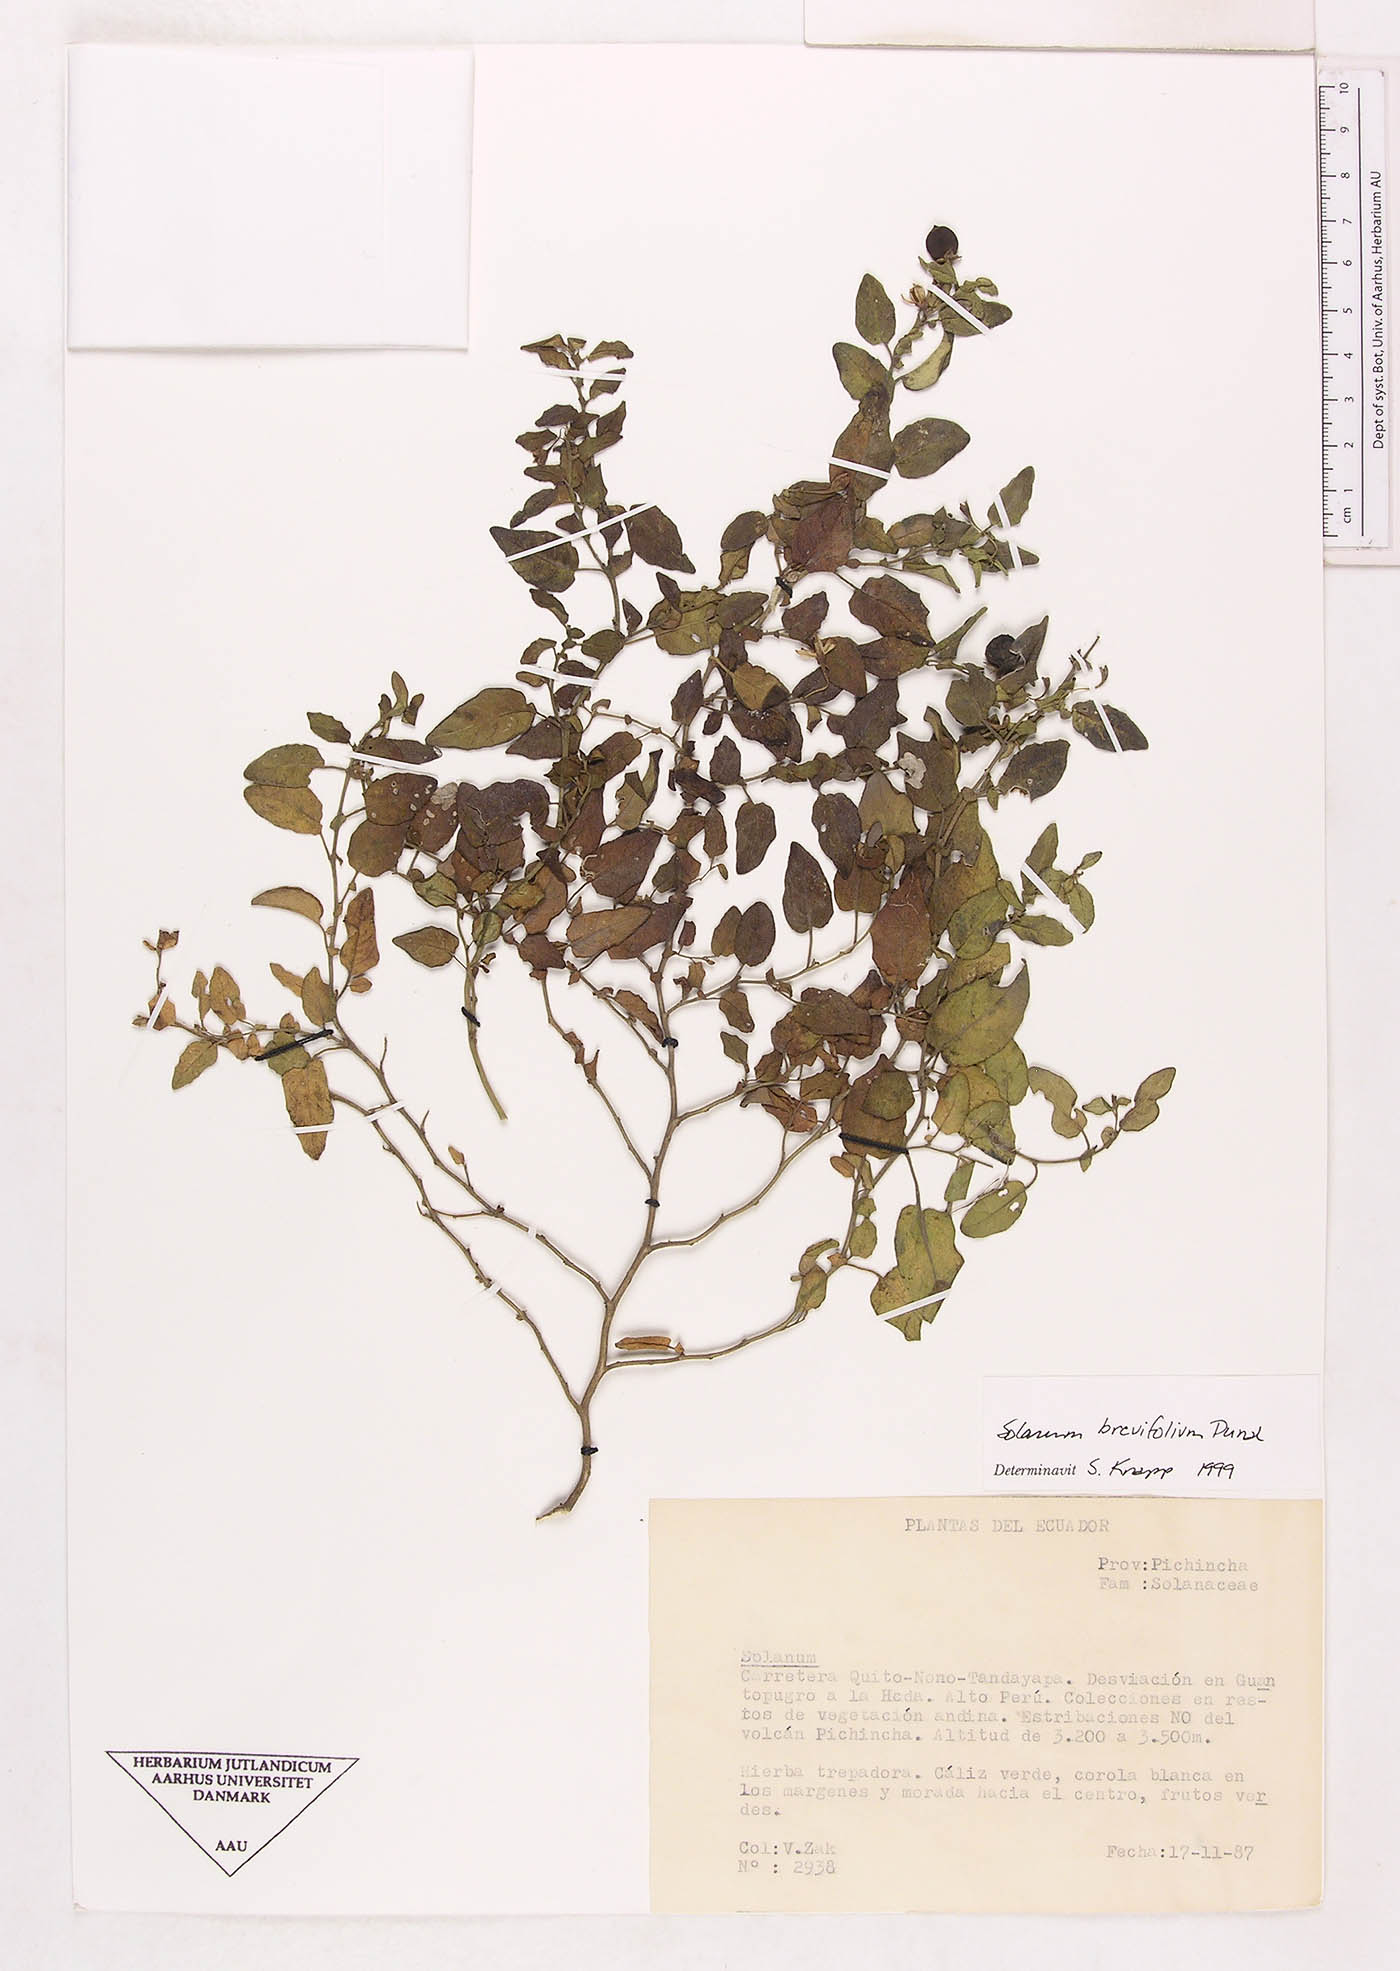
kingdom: Plantae
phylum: Tracheophyta
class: Magnoliopsida
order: Solanales
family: Solanaceae
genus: Solanum
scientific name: Solanum brevifolium
